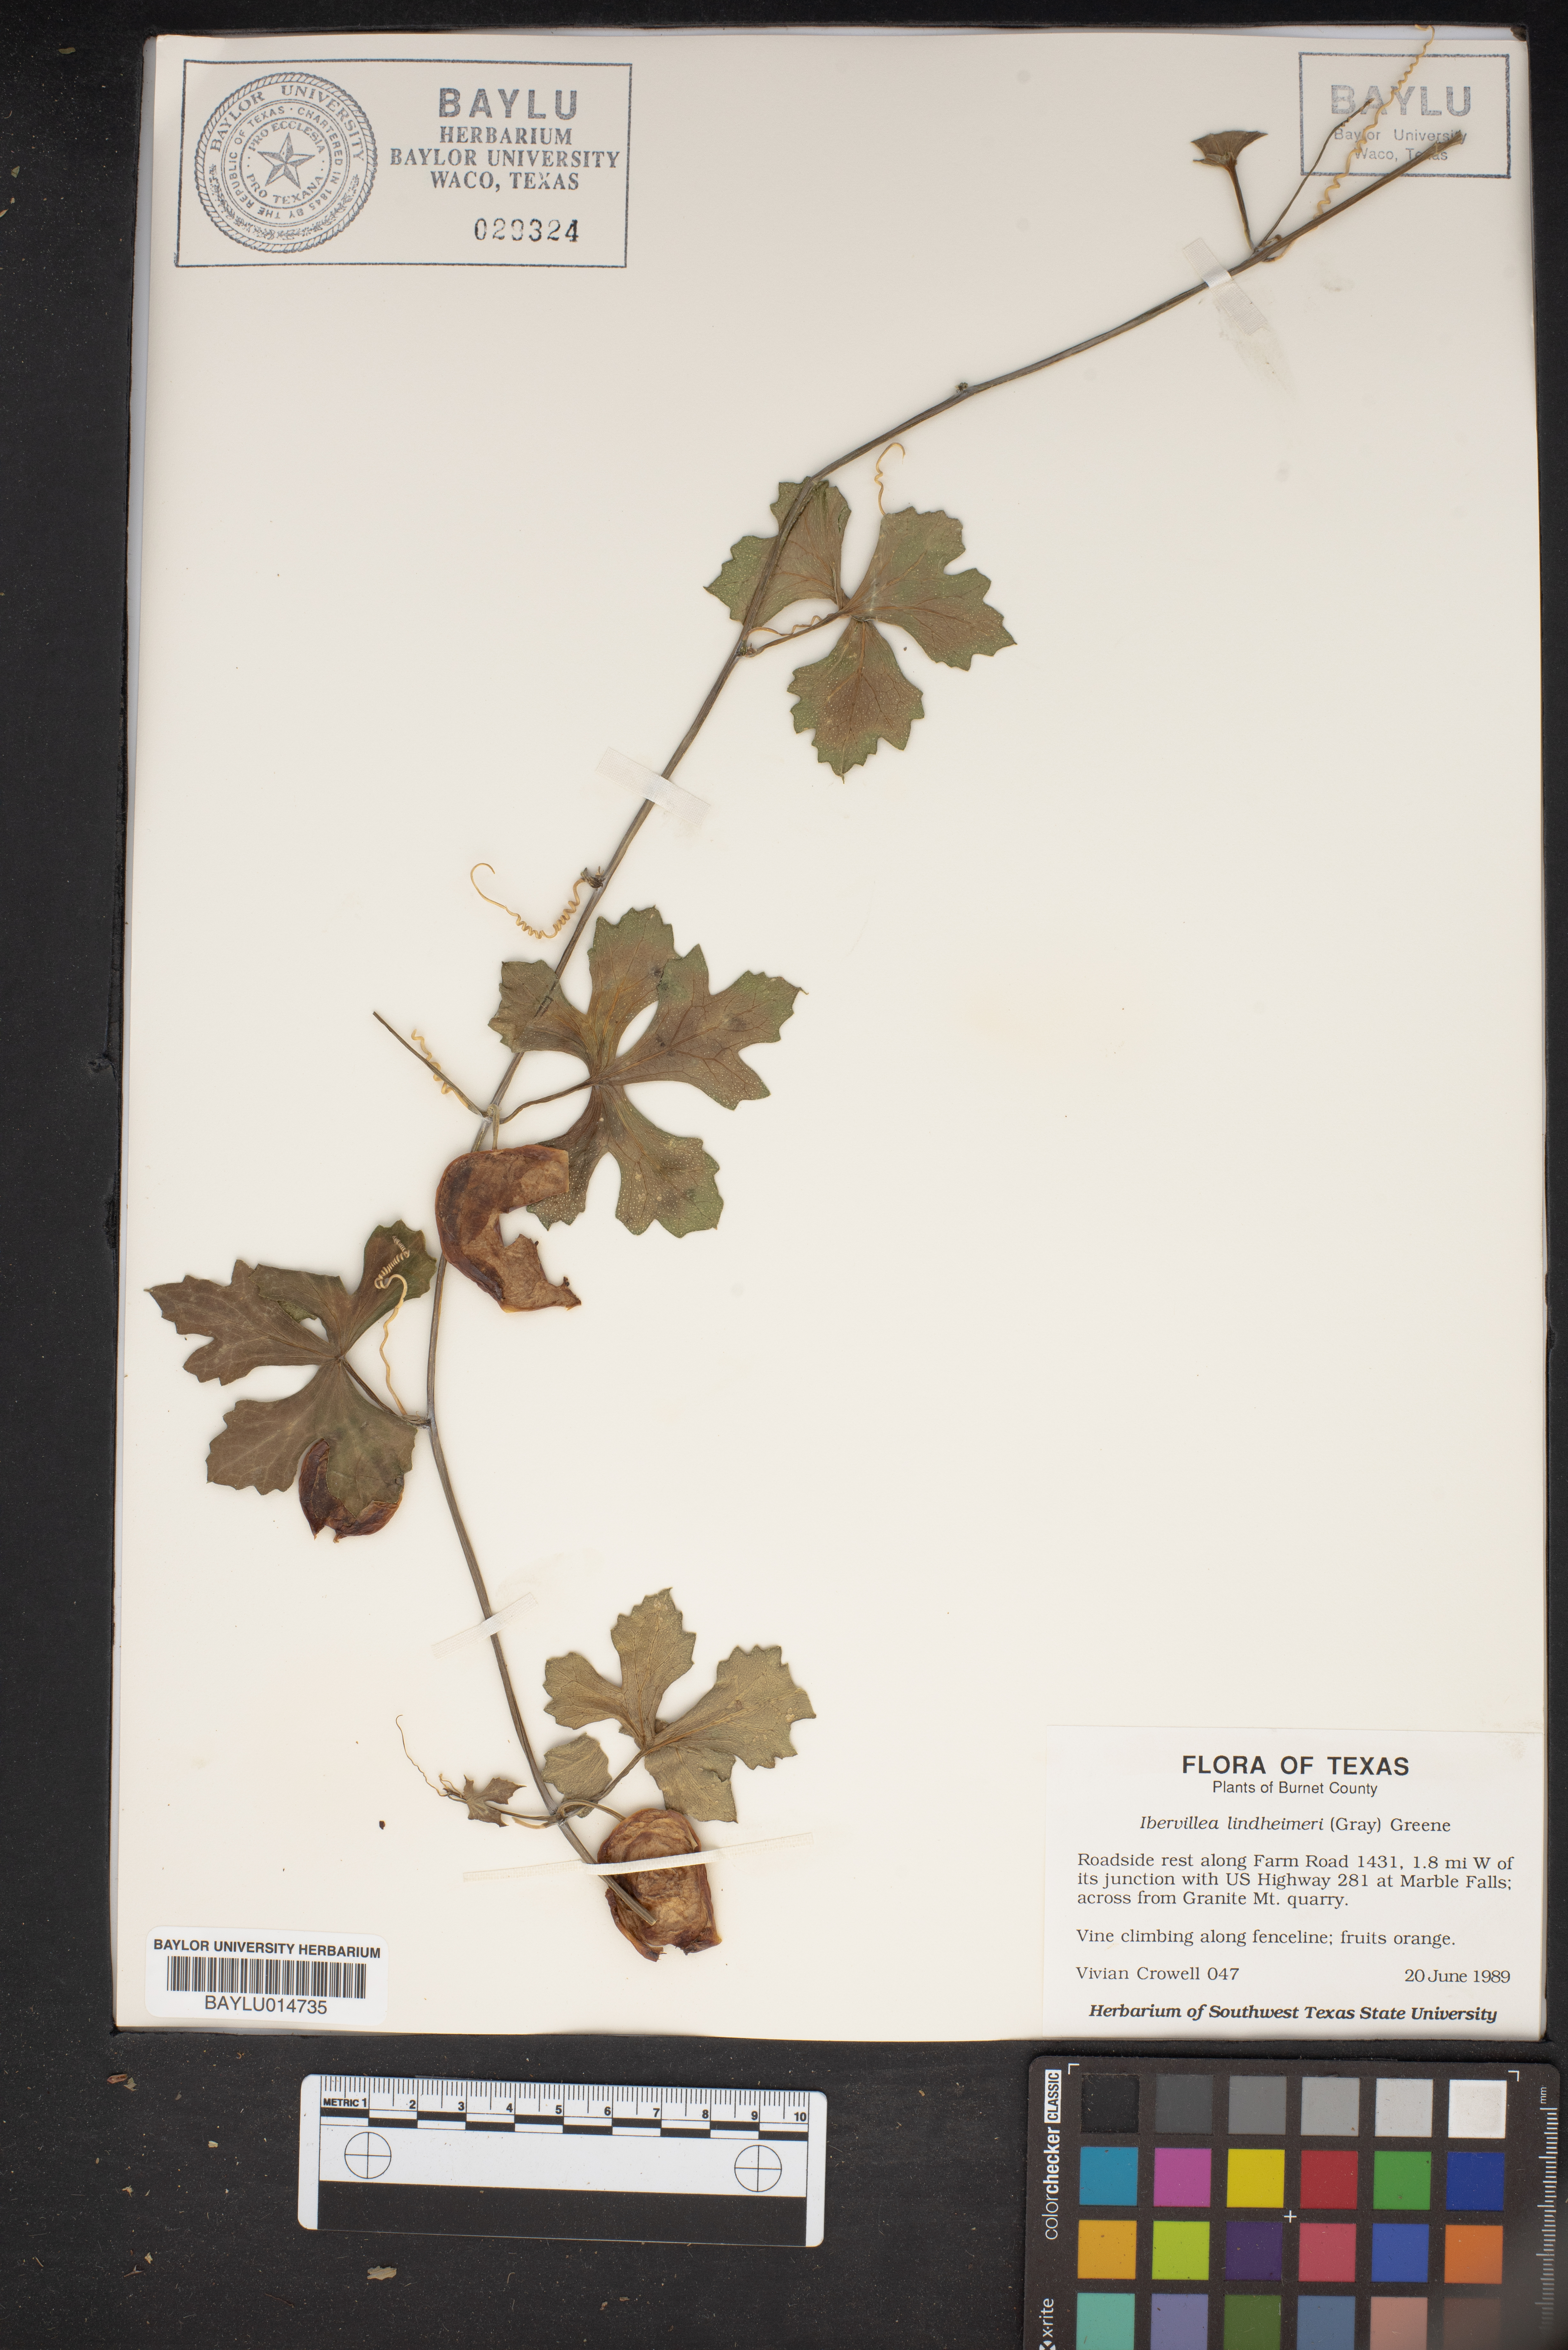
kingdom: Plantae
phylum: Tracheophyta
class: Magnoliopsida
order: Cucurbitales
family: Cucurbitaceae
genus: Ibervillea
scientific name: Ibervillea lindheimeri
